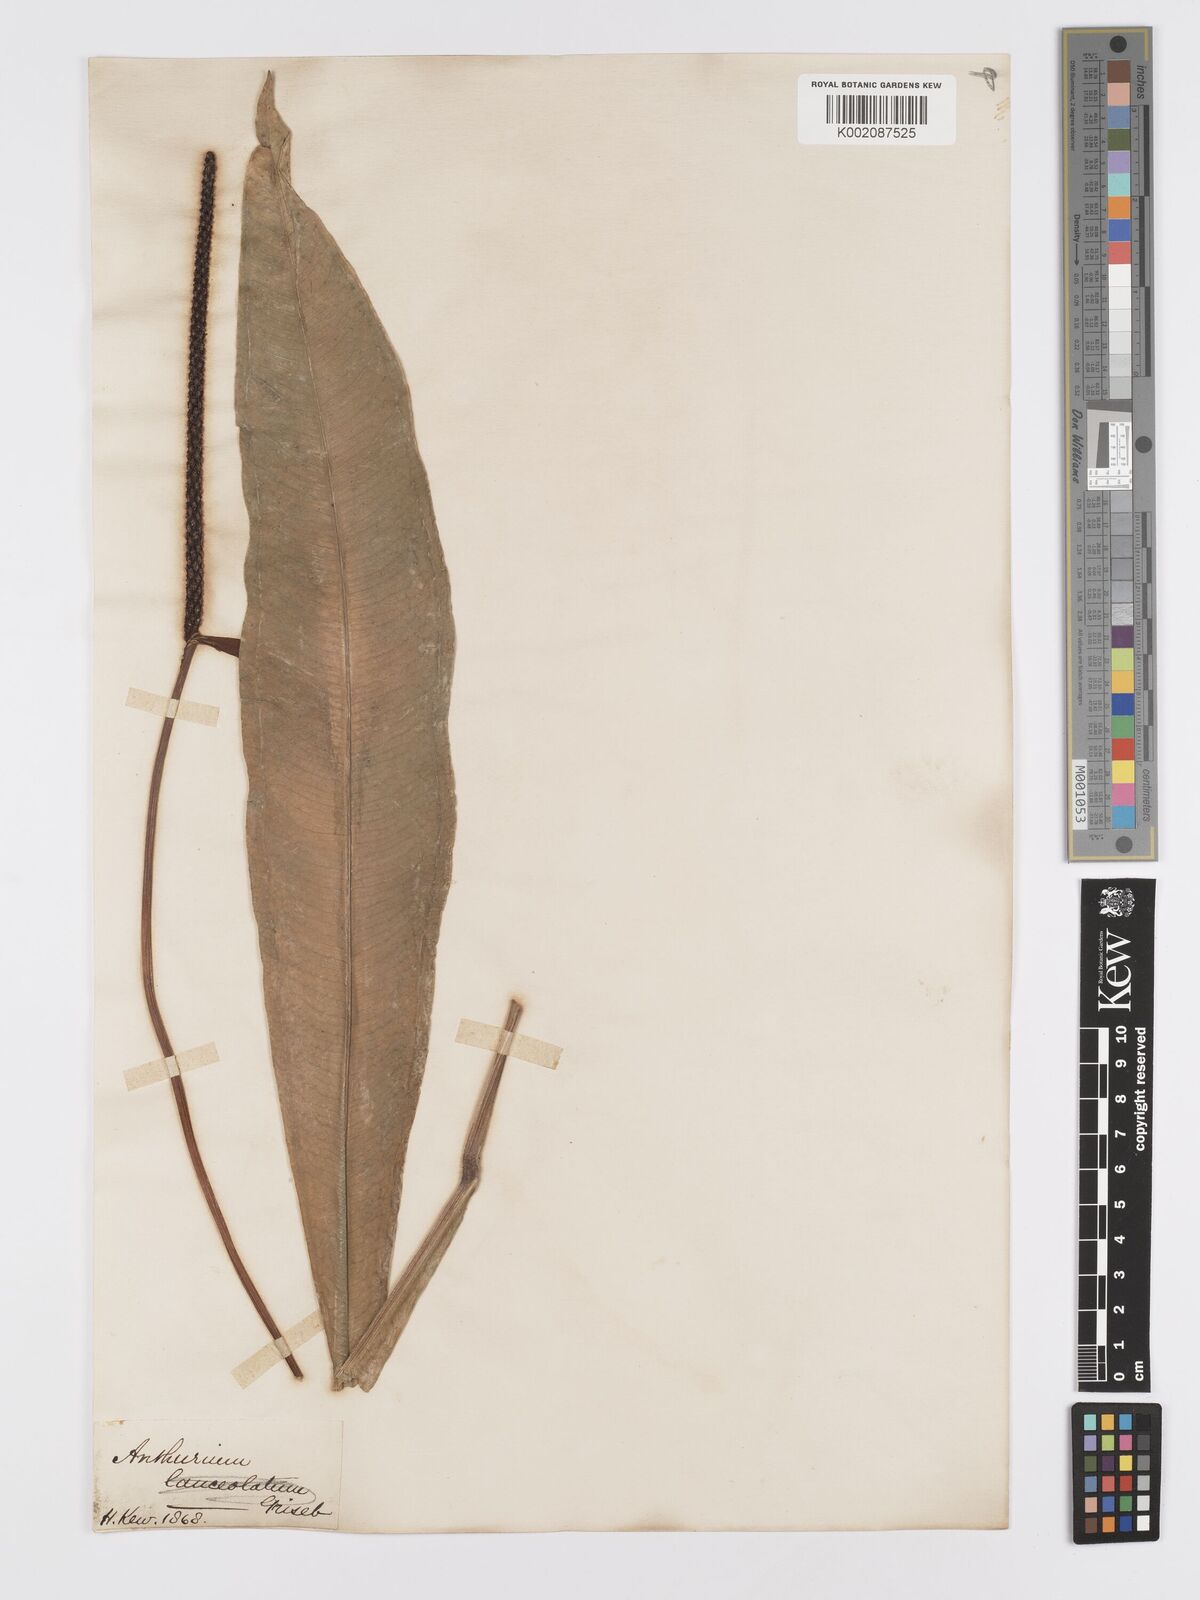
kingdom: Plantae
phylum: Tracheophyta
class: Liliopsida
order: Alismatales
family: Araceae
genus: Anthurium
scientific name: Anthurium intermedium
